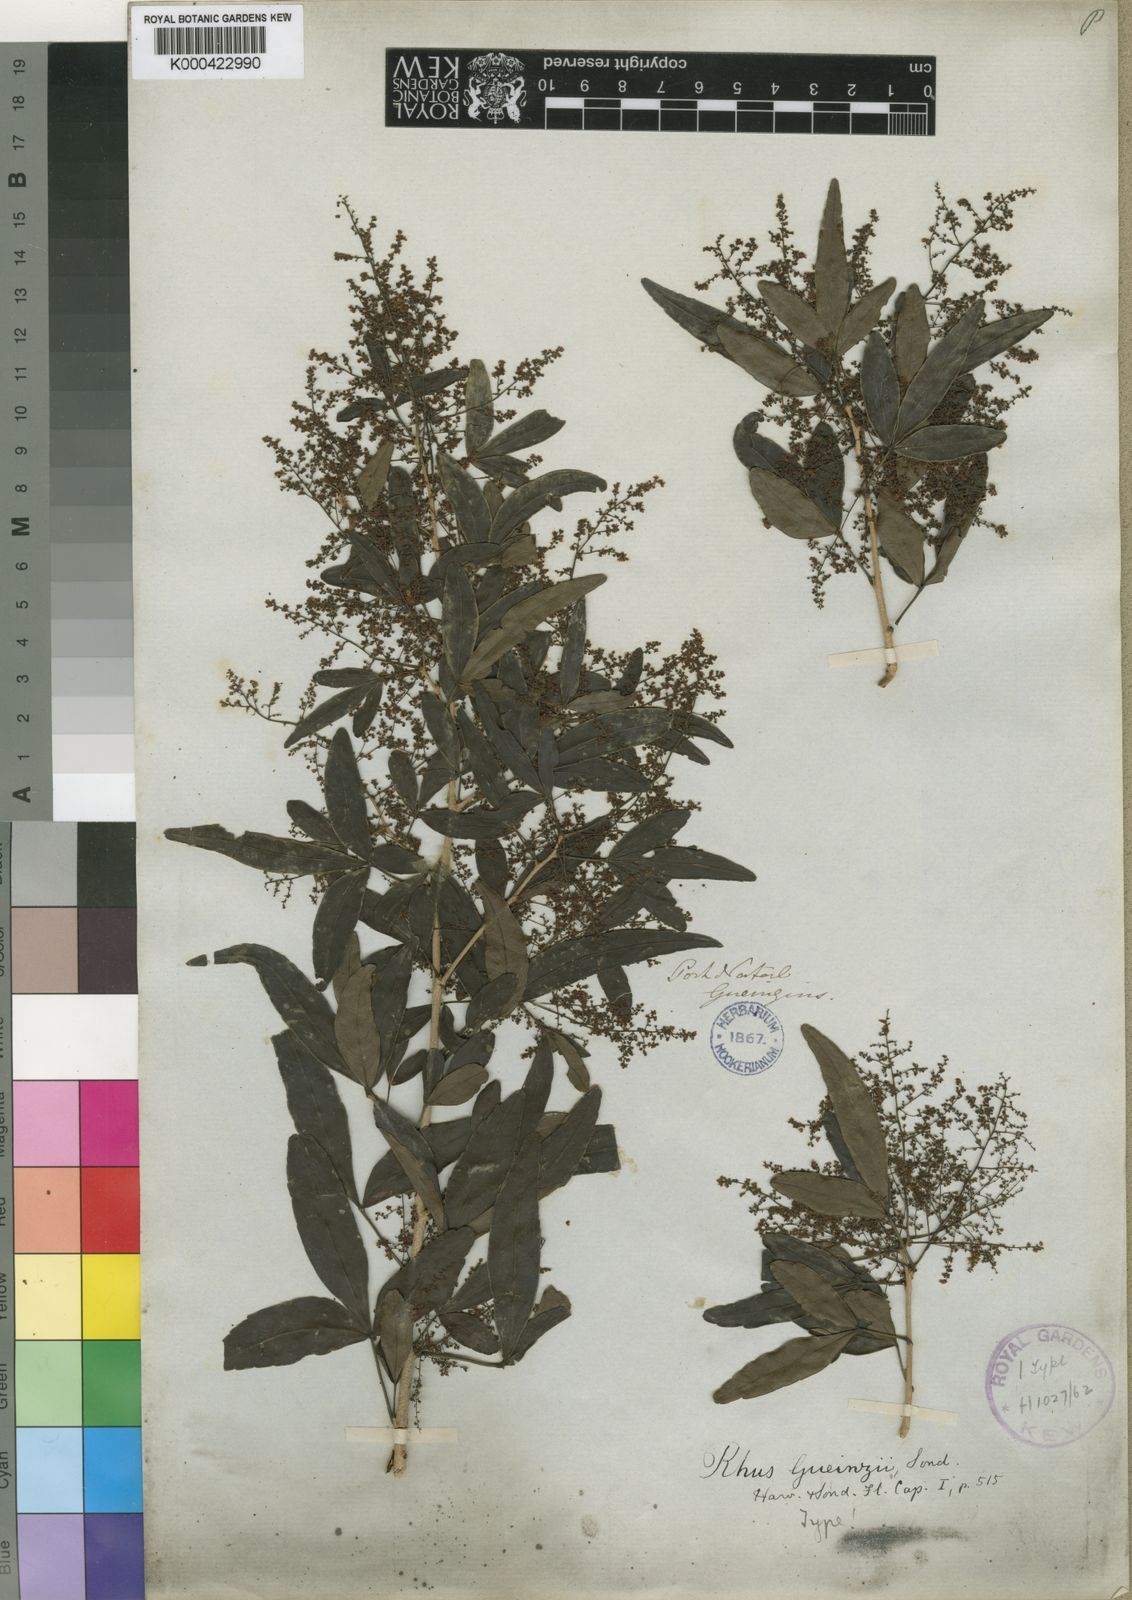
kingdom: Plantae
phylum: Tracheophyta
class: Magnoliopsida
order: Sapindales
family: Anacardiaceae
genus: Searsia
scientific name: Searsia gueinzii
